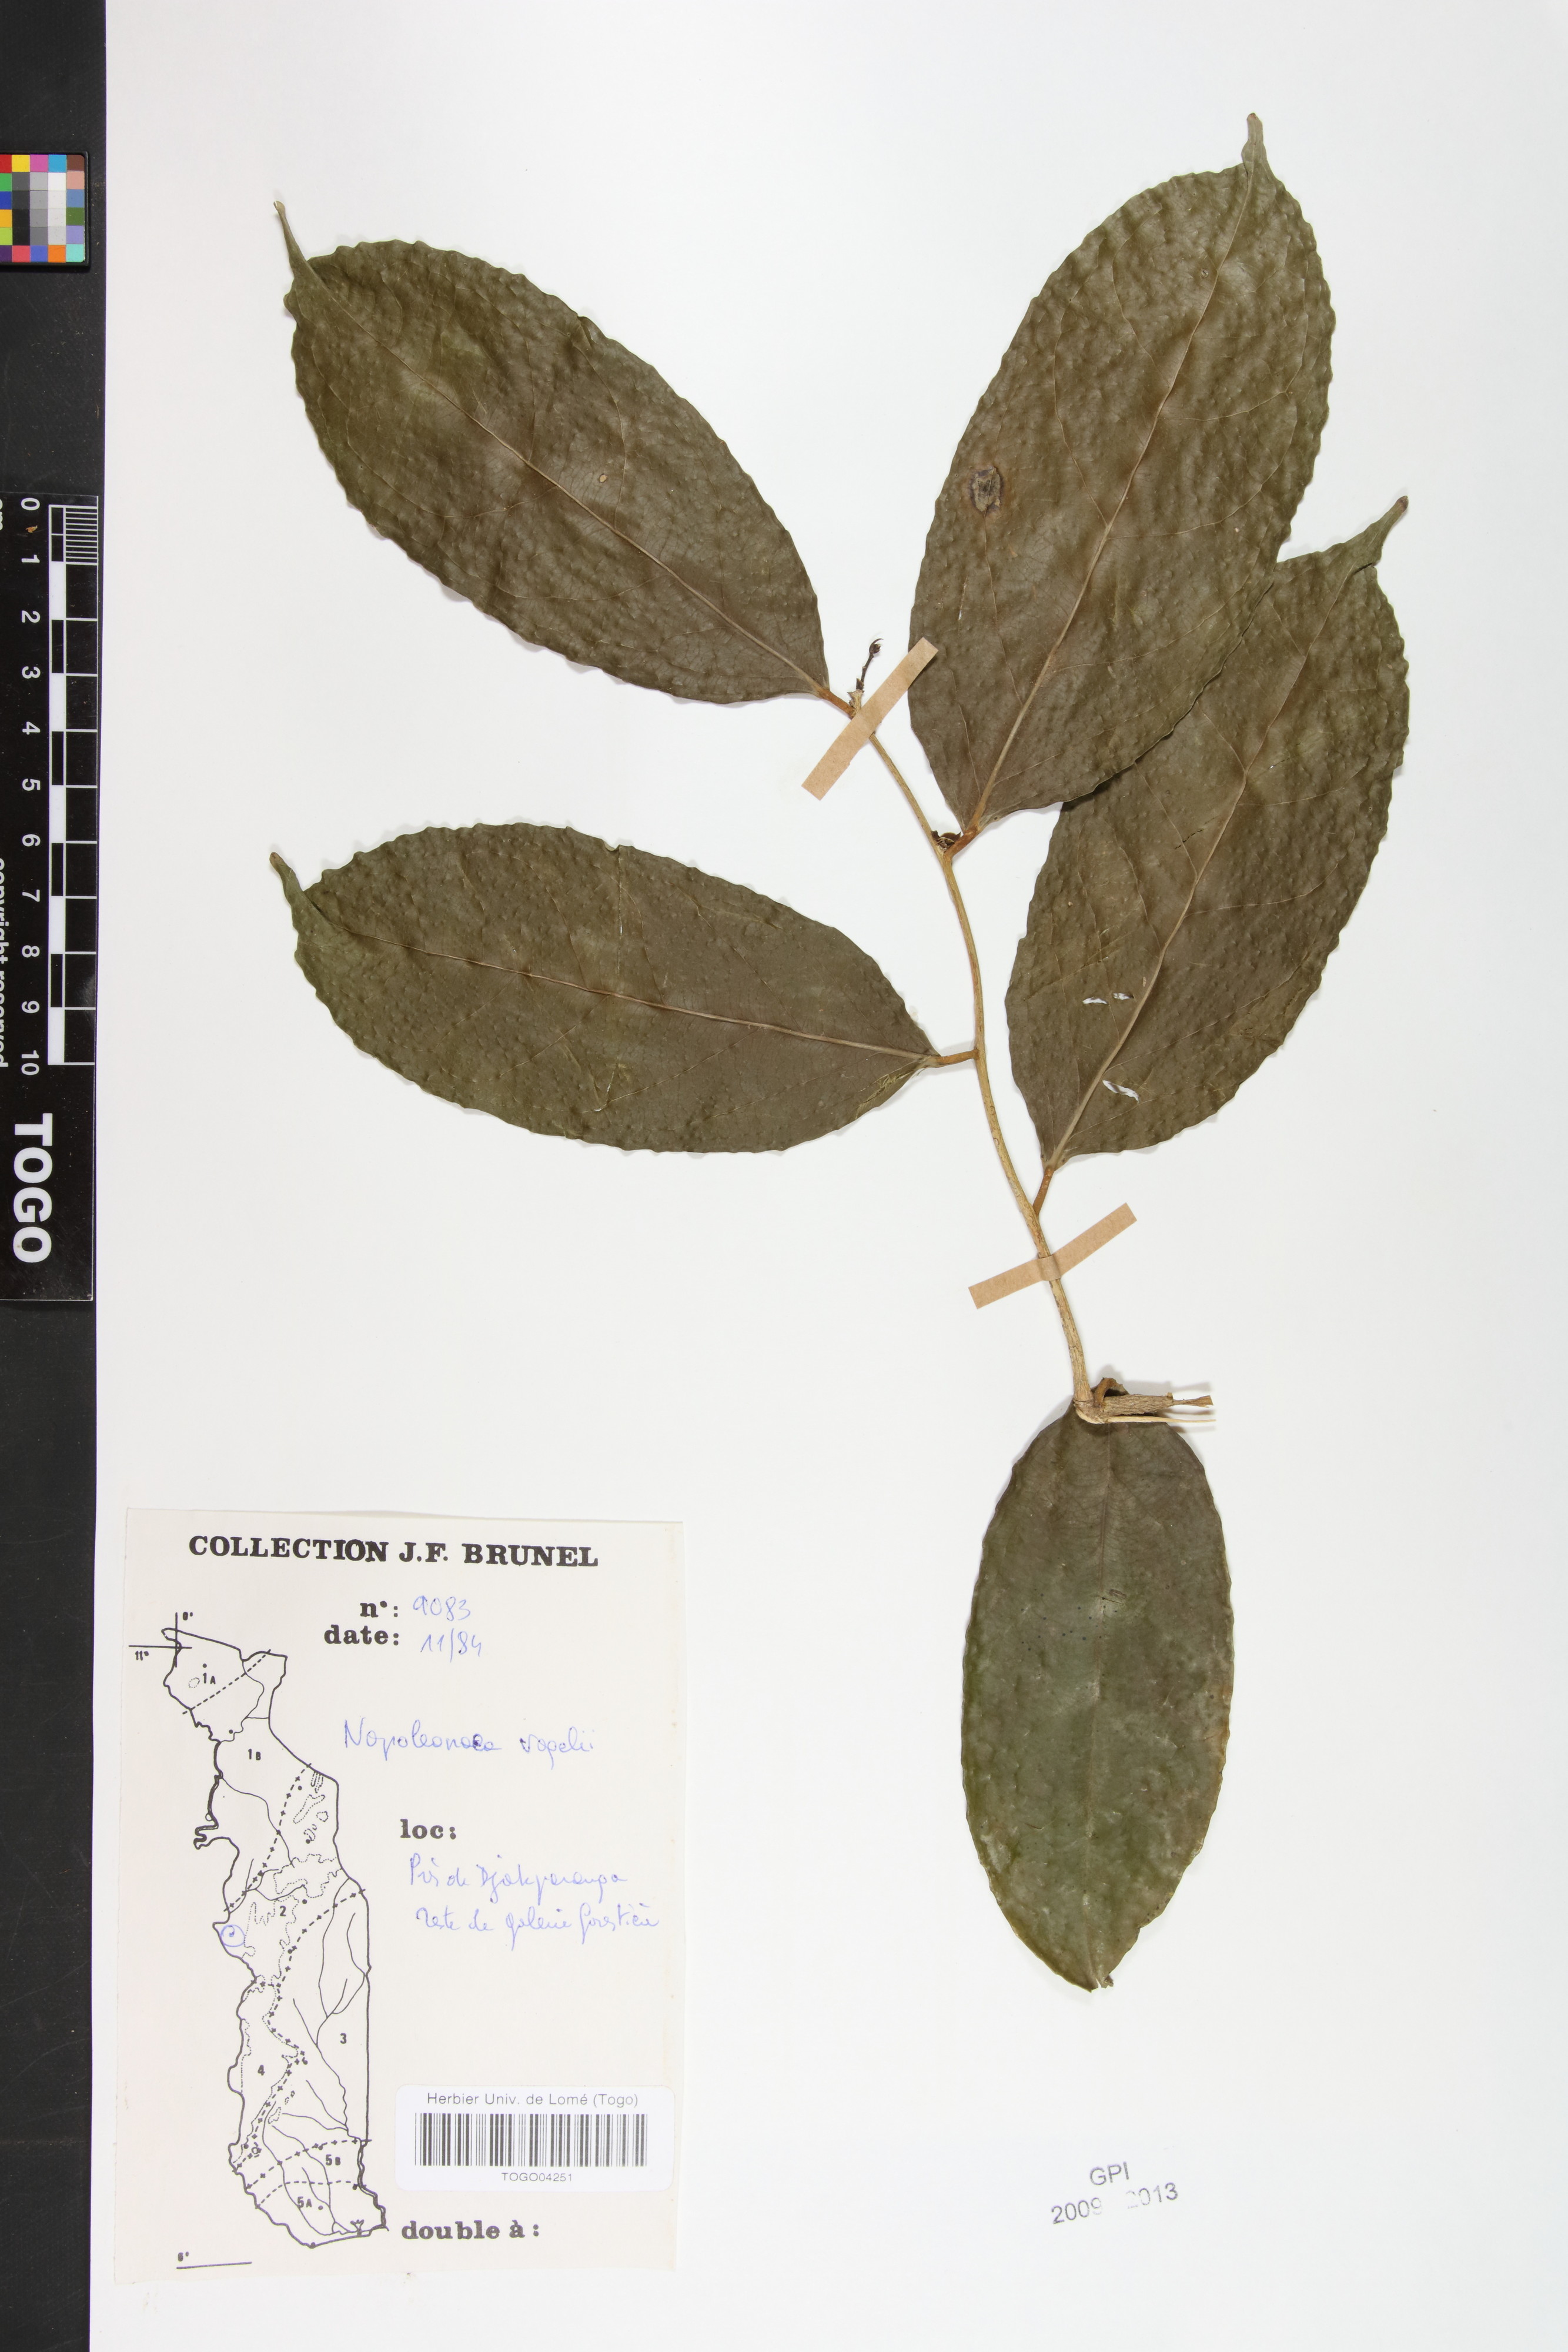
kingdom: Plantae
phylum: Tracheophyta
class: Magnoliopsida
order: Ericales
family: Lecythidaceae
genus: Napoleonaea
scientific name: Napoleonaea vogelii
